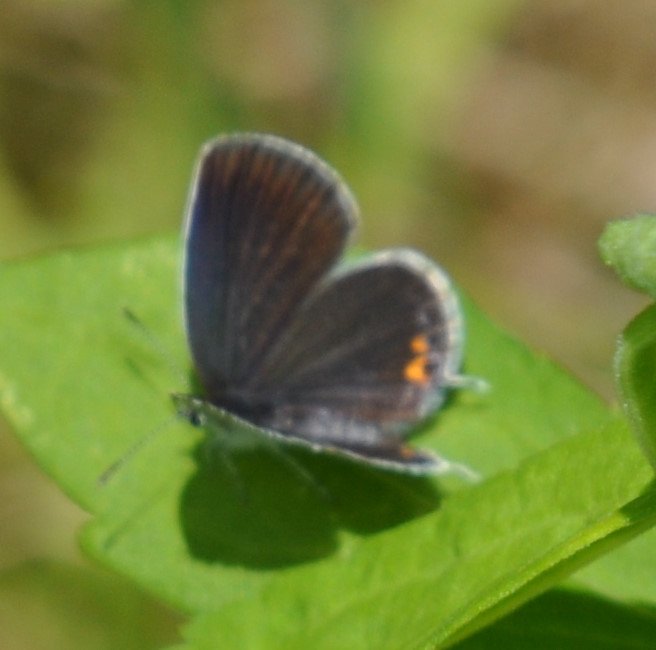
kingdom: Animalia
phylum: Arthropoda
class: Insecta
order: Lepidoptera
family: Lycaenidae
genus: Elkalyce
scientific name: Elkalyce comyntas
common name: Eastern Tailed-Blue
